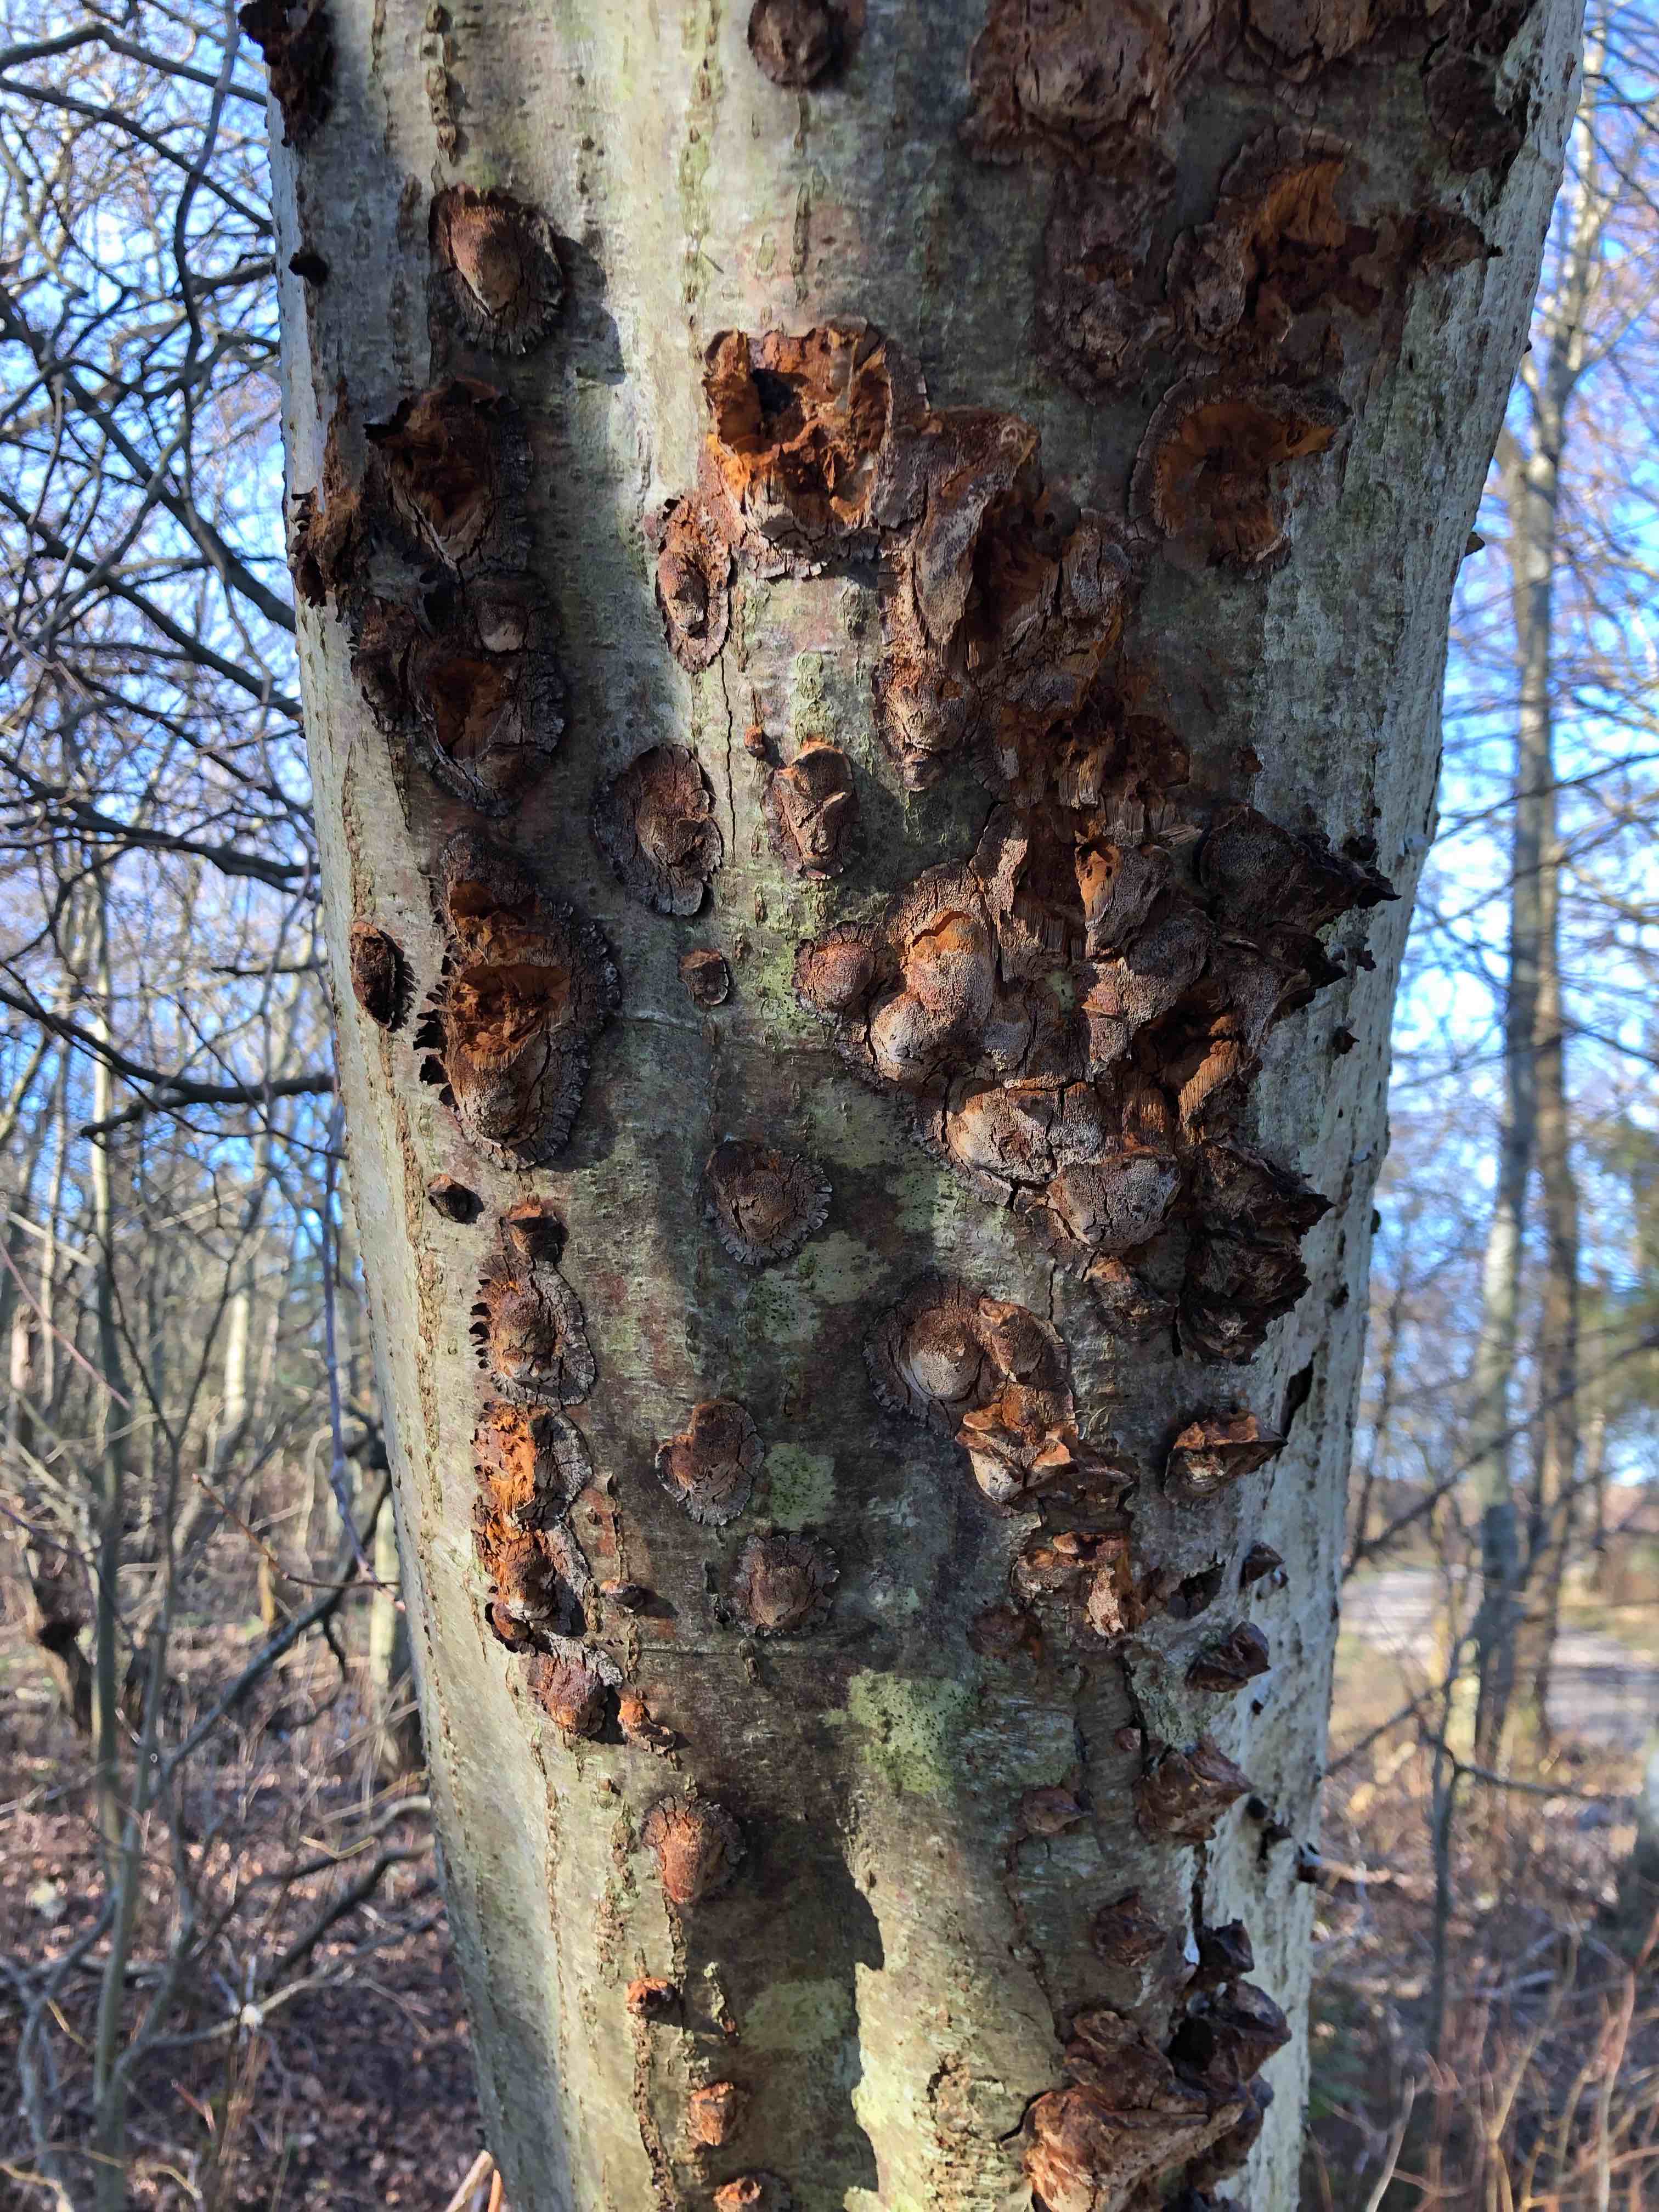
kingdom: Fungi
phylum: Basidiomycota
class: Agaricomycetes
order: Hymenochaetales
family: Hymenochaetaceae
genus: Xanthoporia
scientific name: Xanthoporia radiata
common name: elle-spejlporesvamp
